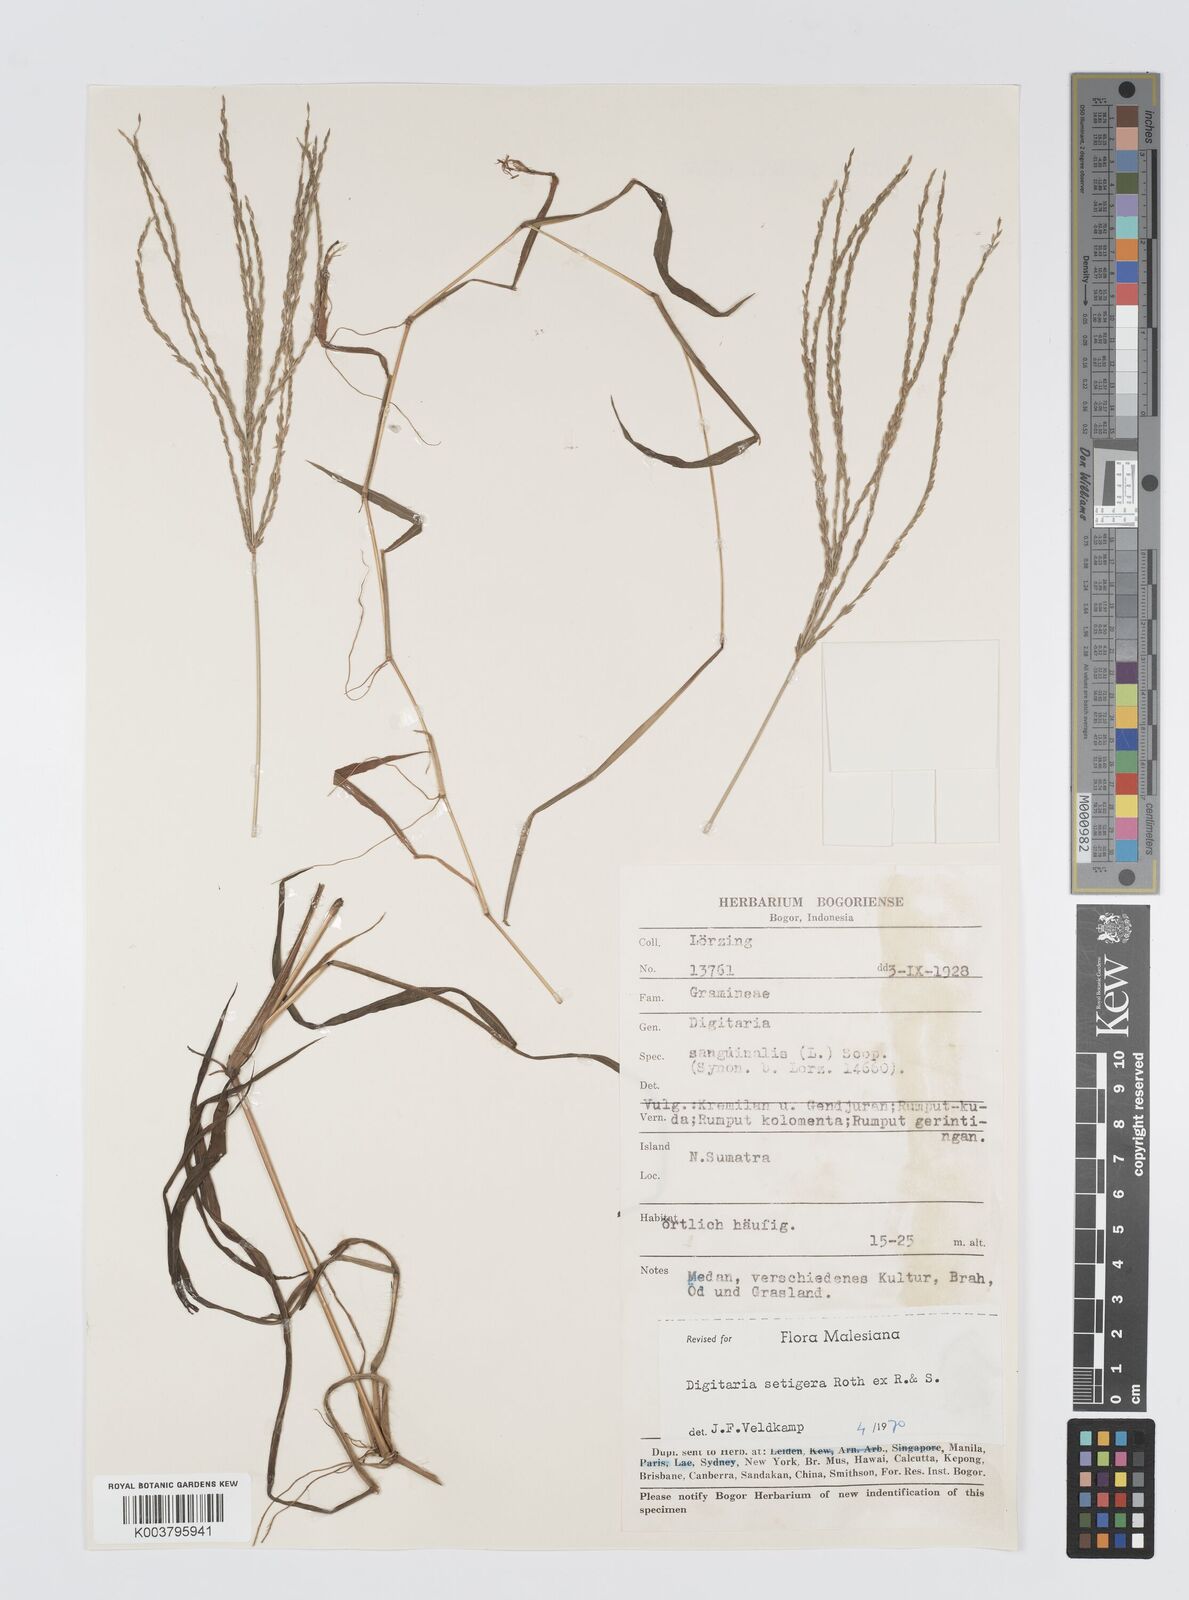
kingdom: Plantae
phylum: Tracheophyta
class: Liliopsida
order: Poales
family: Poaceae
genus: Digitaria
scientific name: Digitaria setigera
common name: East indian crabgrass
